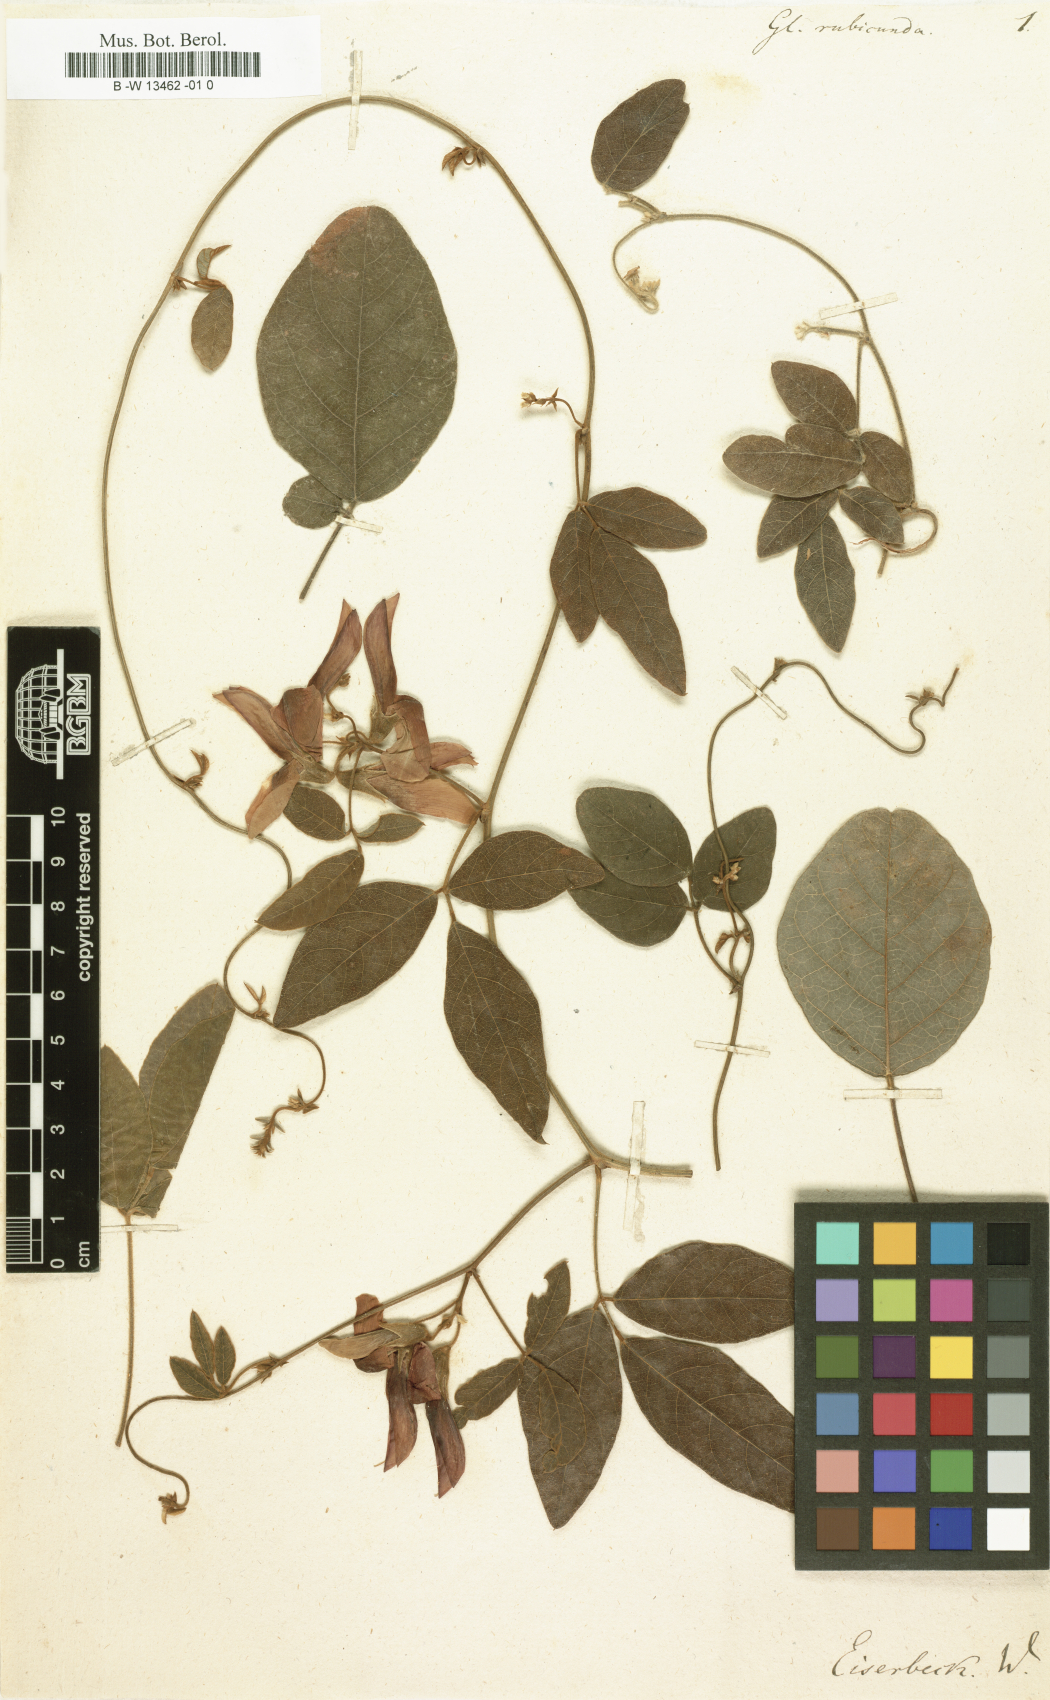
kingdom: Plantae
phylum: Tracheophyta
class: Magnoliopsida
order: Fabales
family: Fabaceae
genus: Glycine
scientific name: Glycine rubicunda
